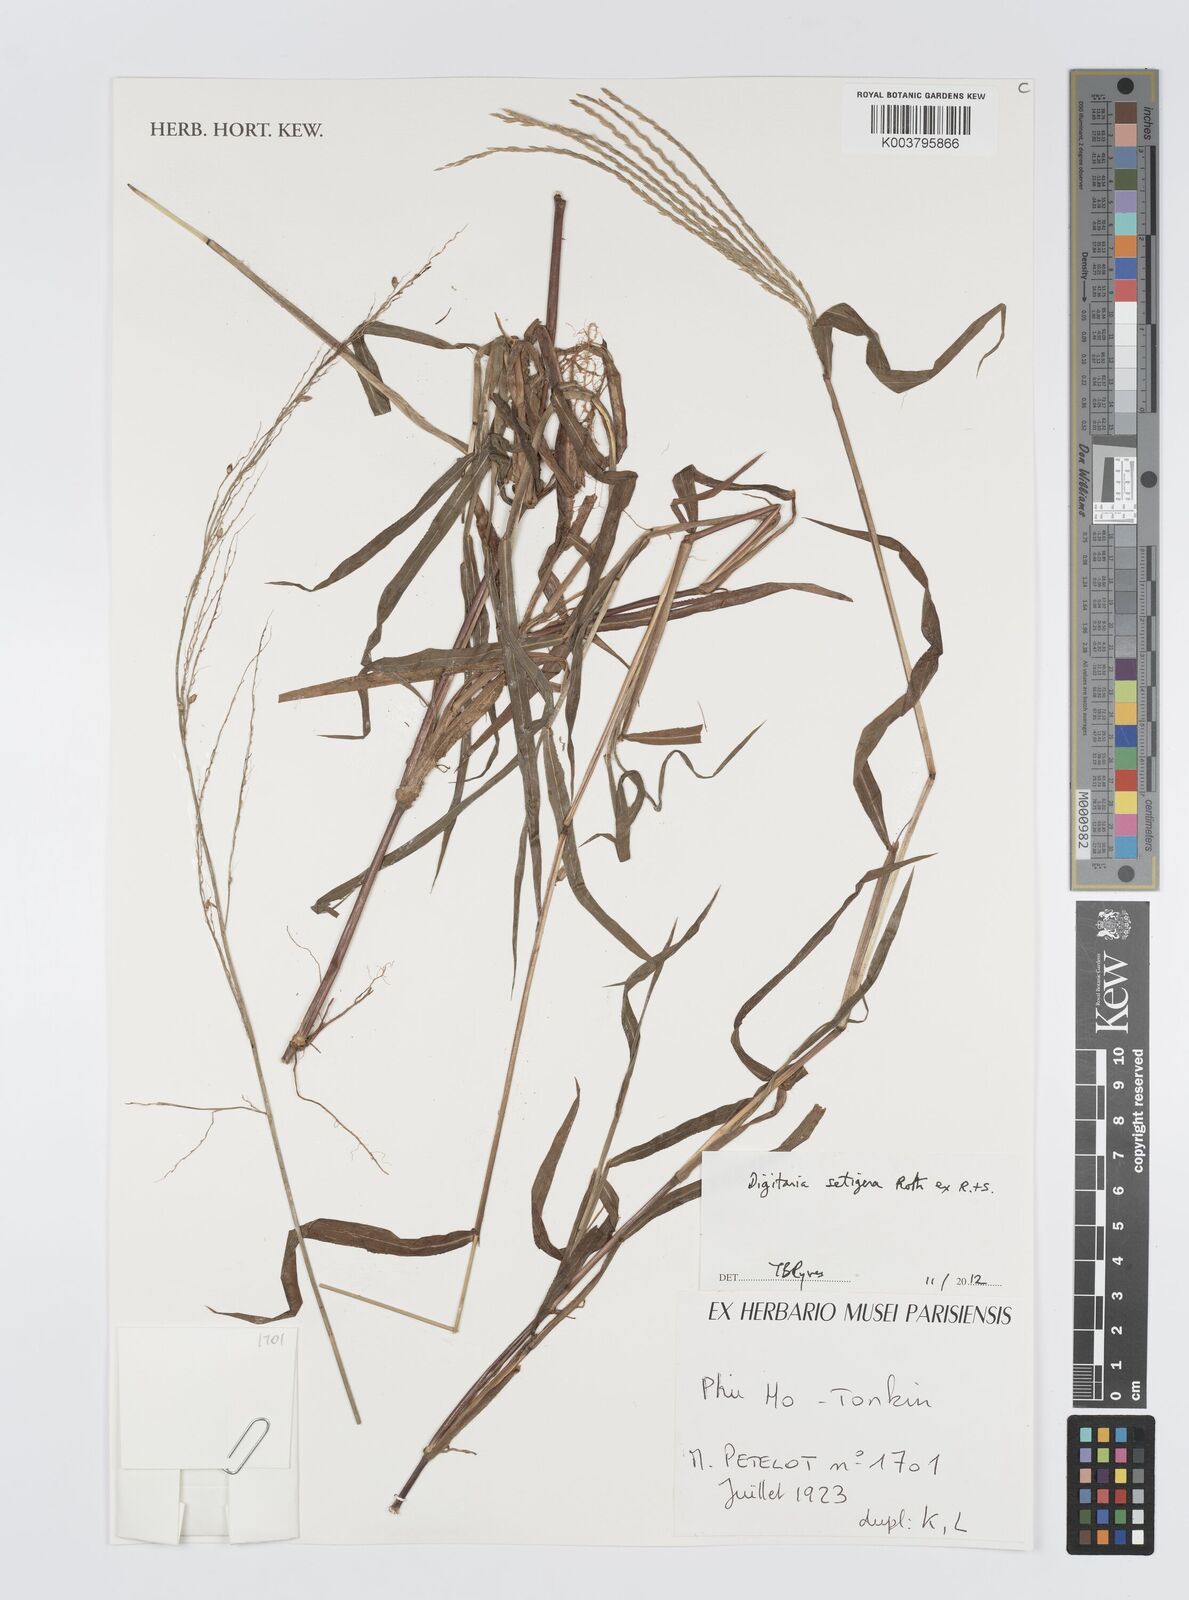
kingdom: Plantae
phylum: Tracheophyta
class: Liliopsida
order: Poales
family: Poaceae
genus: Digitaria
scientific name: Digitaria setigera
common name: East indian crabgrass
